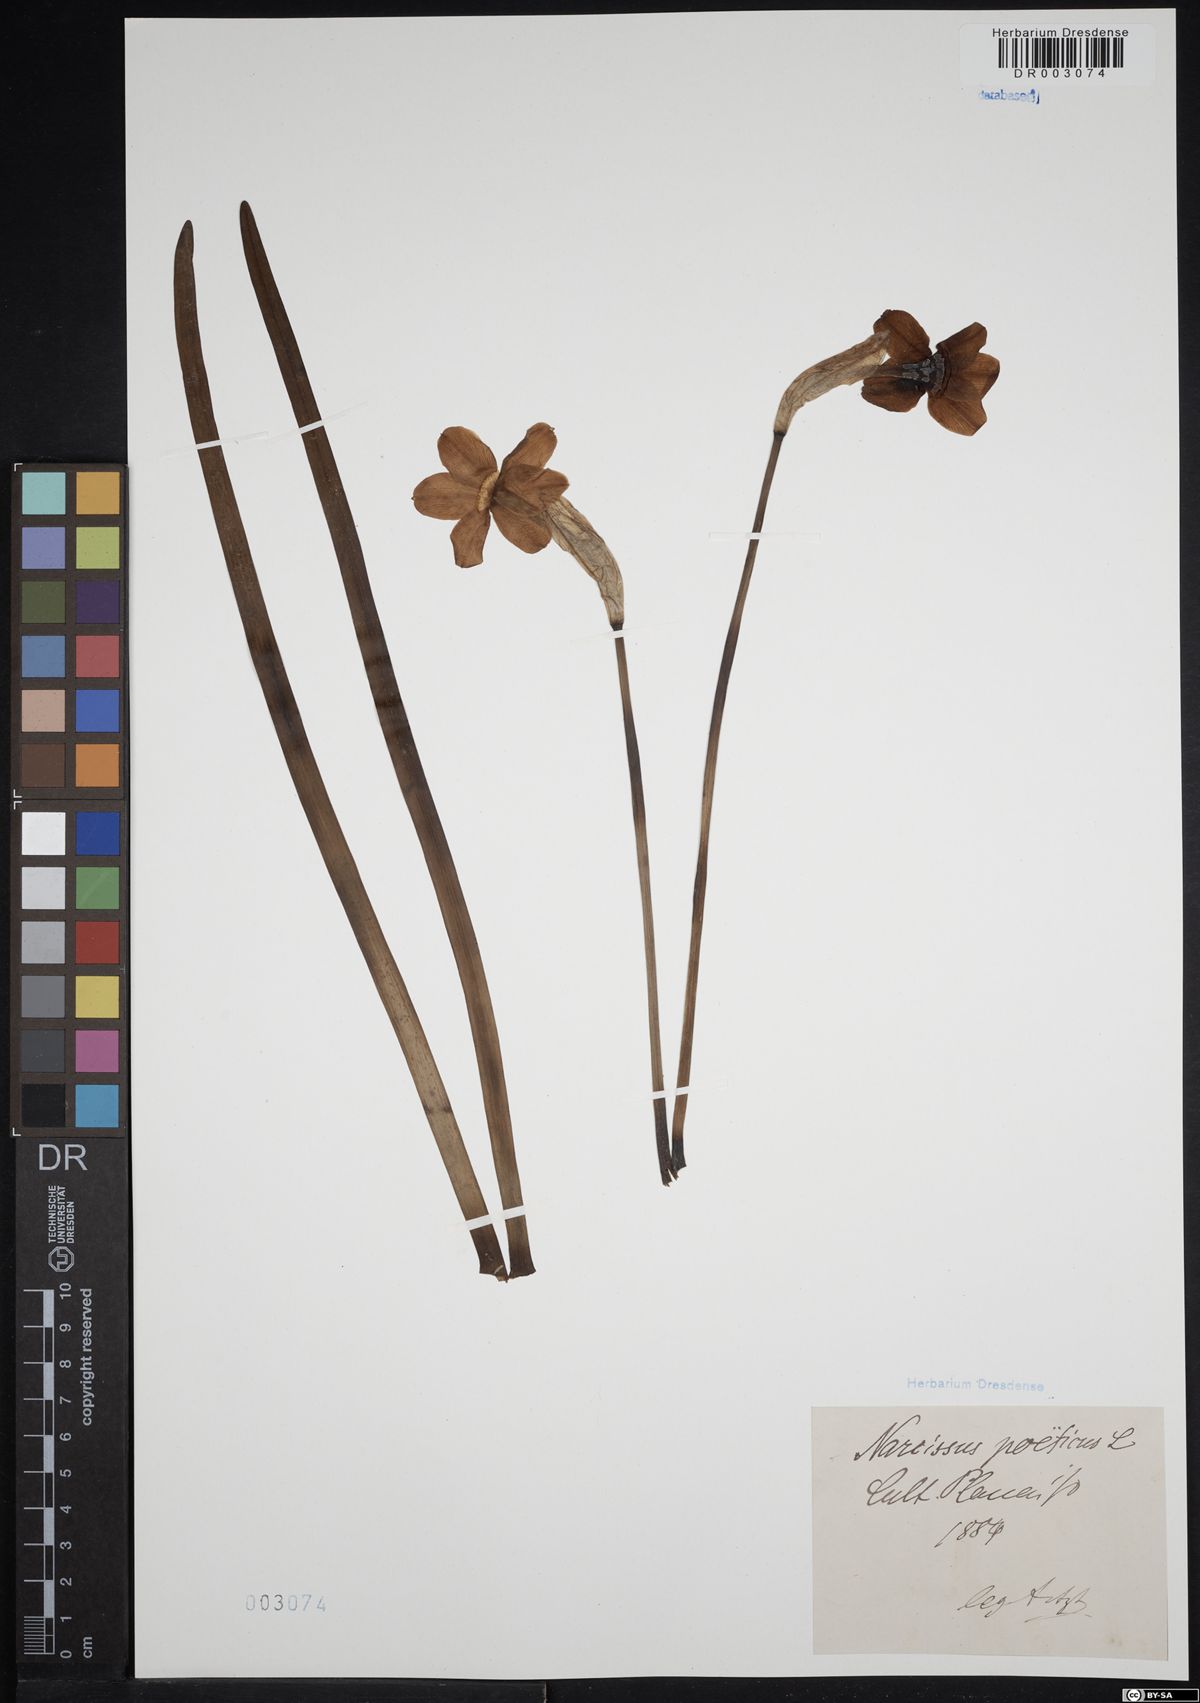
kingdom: Plantae
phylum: Tracheophyta
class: Liliopsida
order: Asparagales
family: Amaryllidaceae
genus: Narcissus
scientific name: Narcissus poeticus
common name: Pheasant's-eye daffodil
